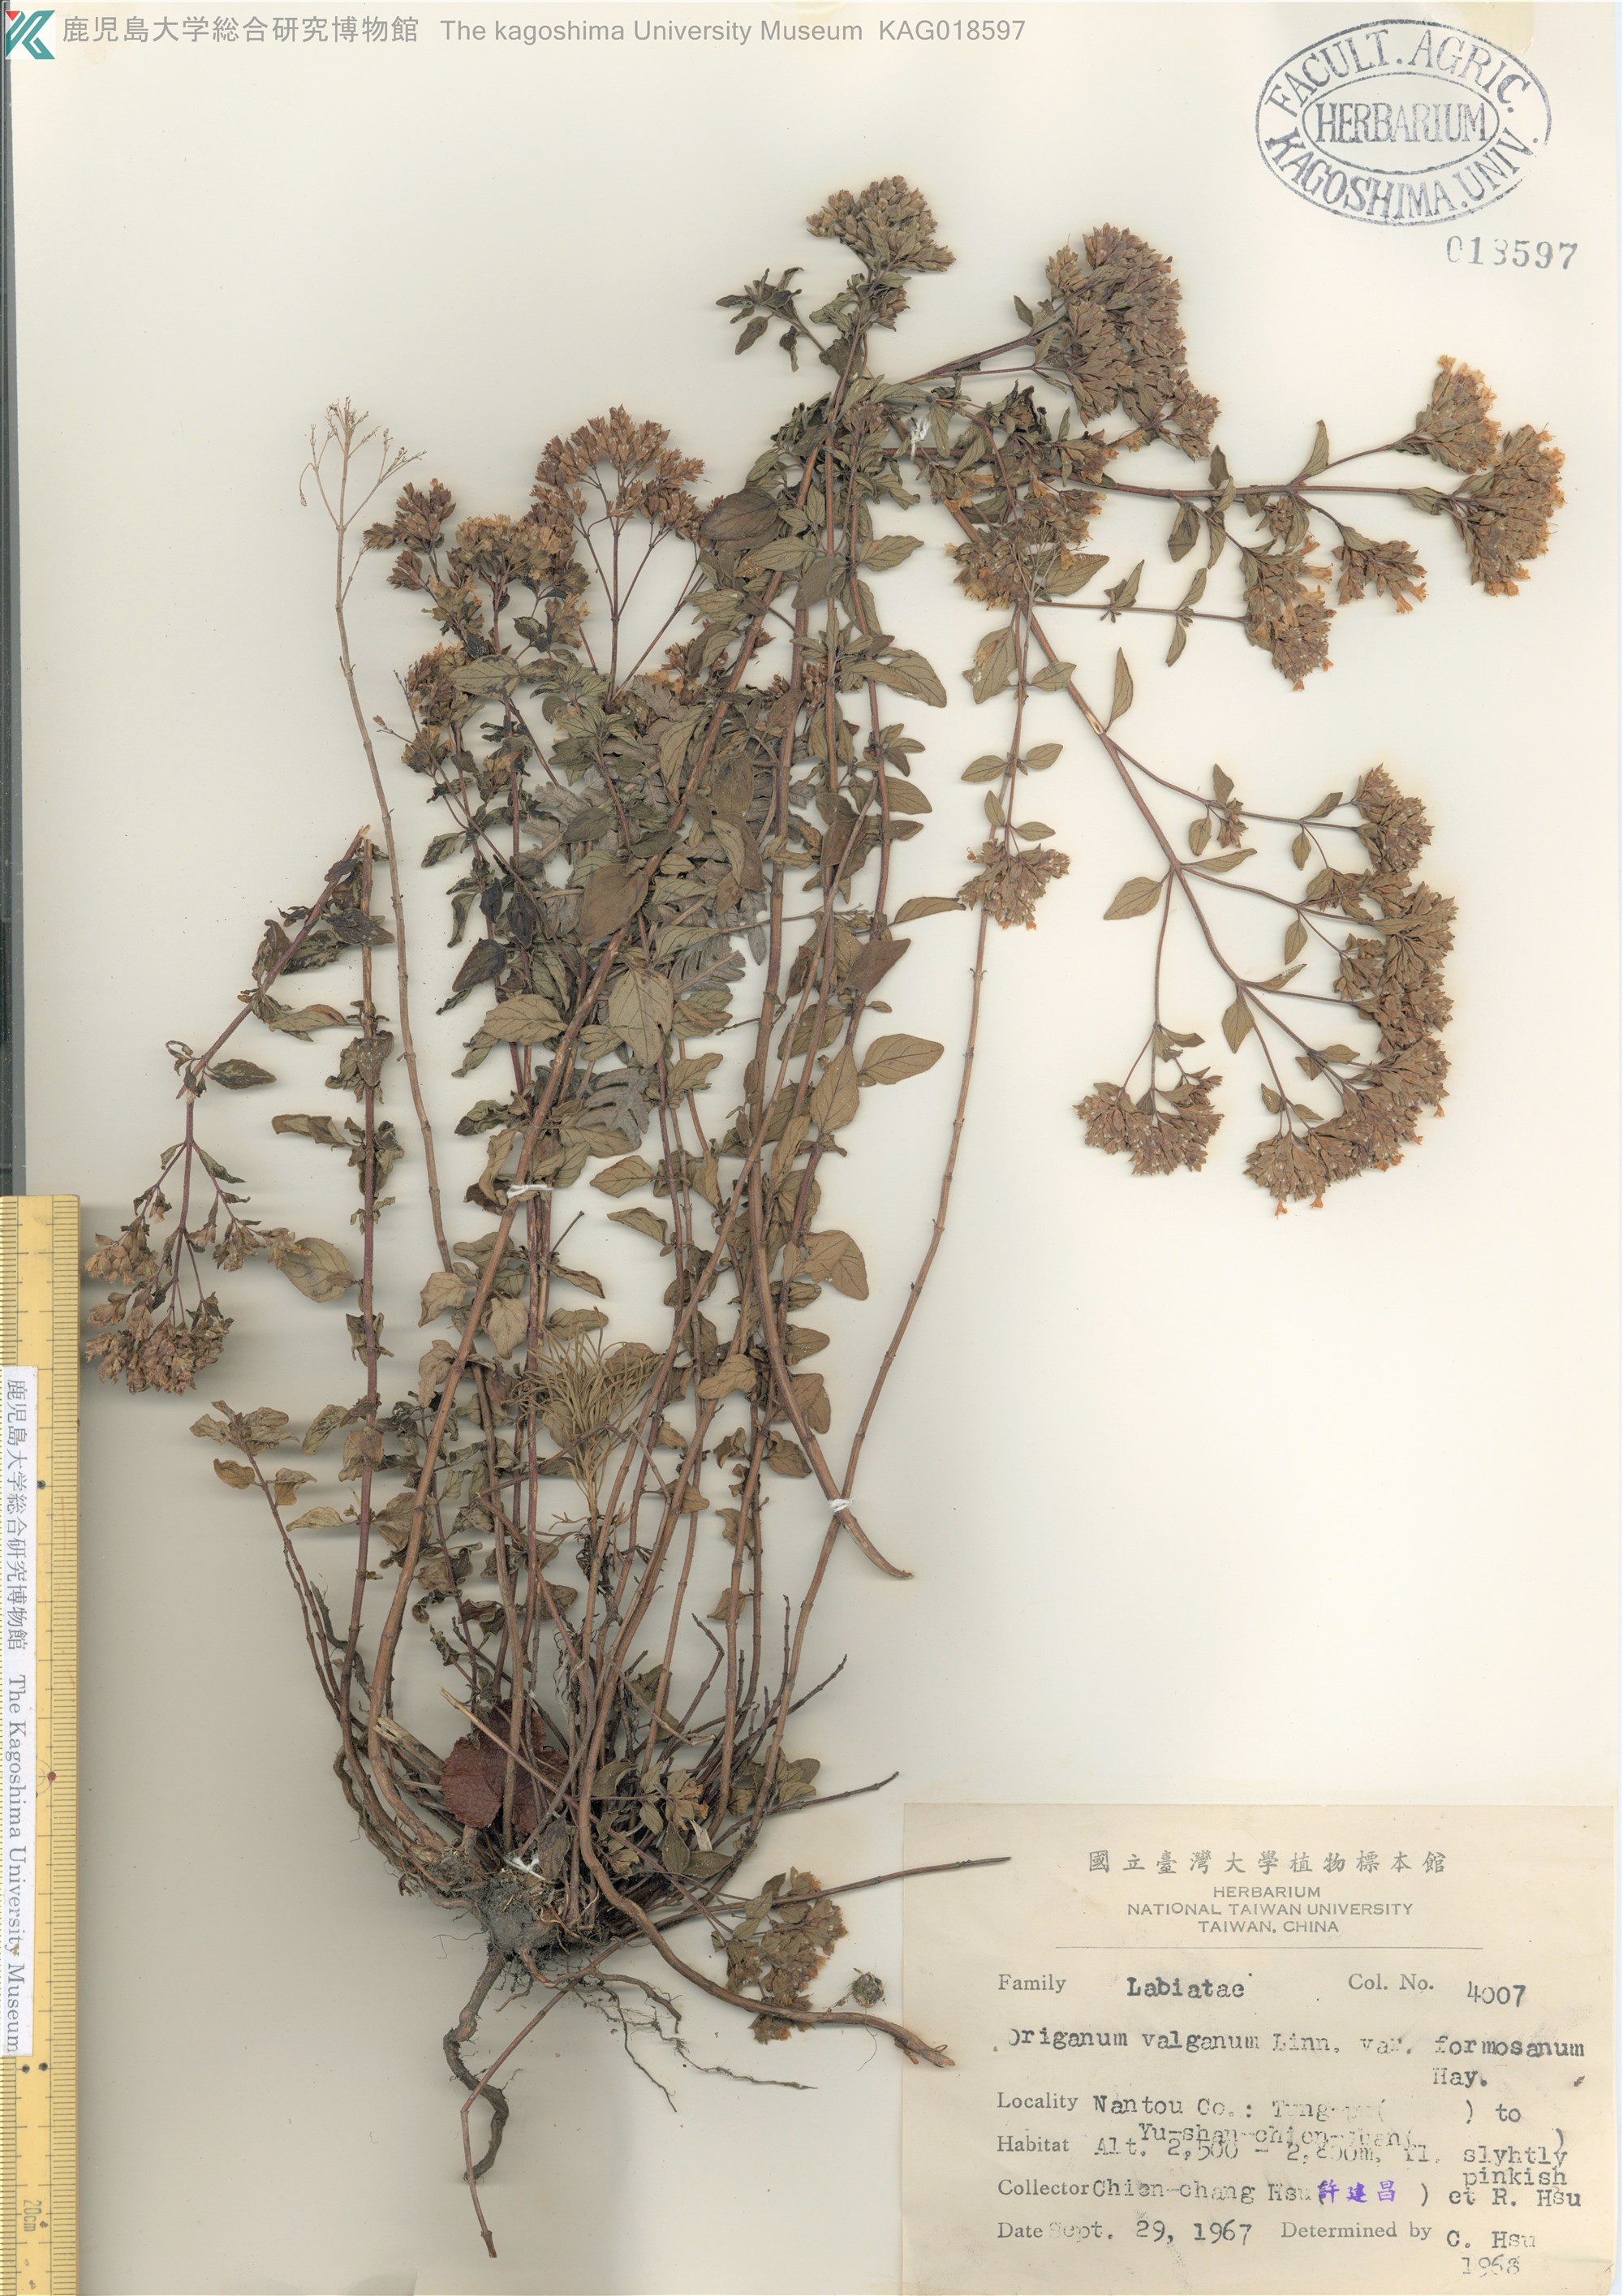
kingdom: Plantae
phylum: Tracheophyta
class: Magnoliopsida
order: Lamiales
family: Lamiaceae
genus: Origanum
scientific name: Origanum vulgare
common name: Wild marjoram
